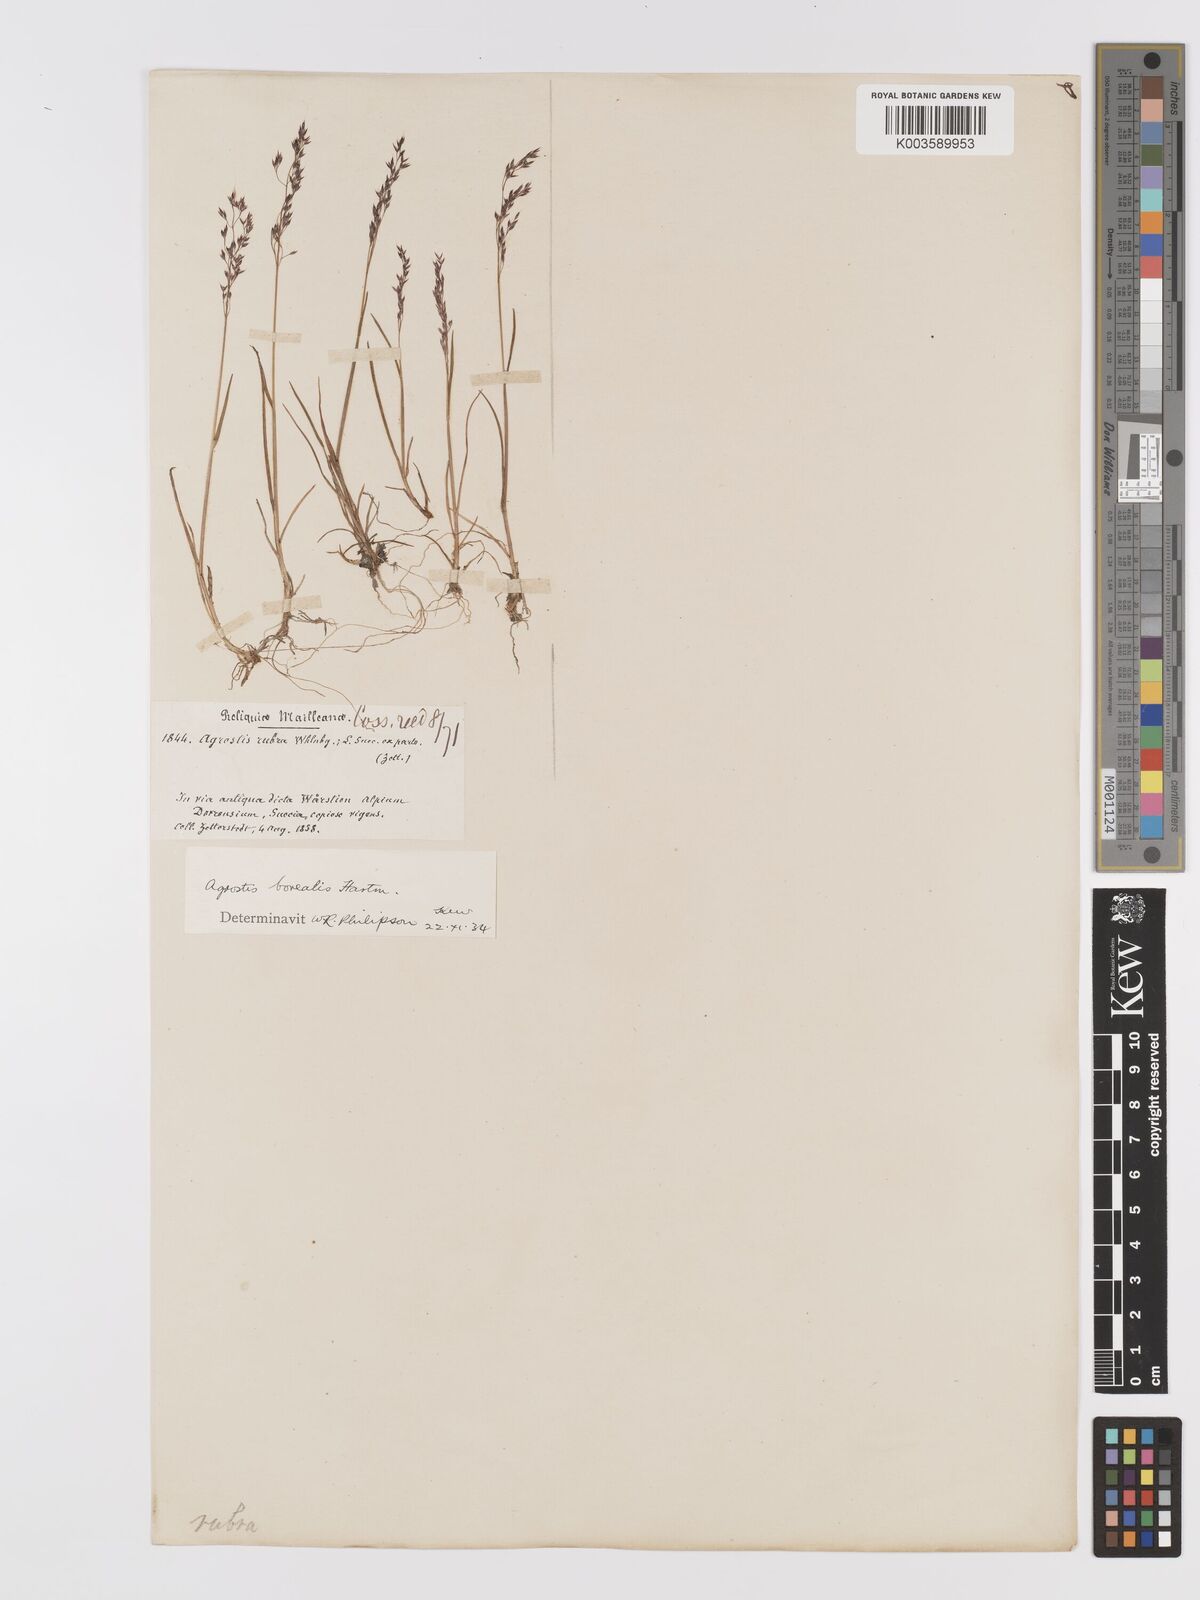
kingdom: Plantae
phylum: Tracheophyta
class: Liliopsida
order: Poales
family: Poaceae
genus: Agrostis
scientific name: Agrostis mertensii
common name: Northern bent
